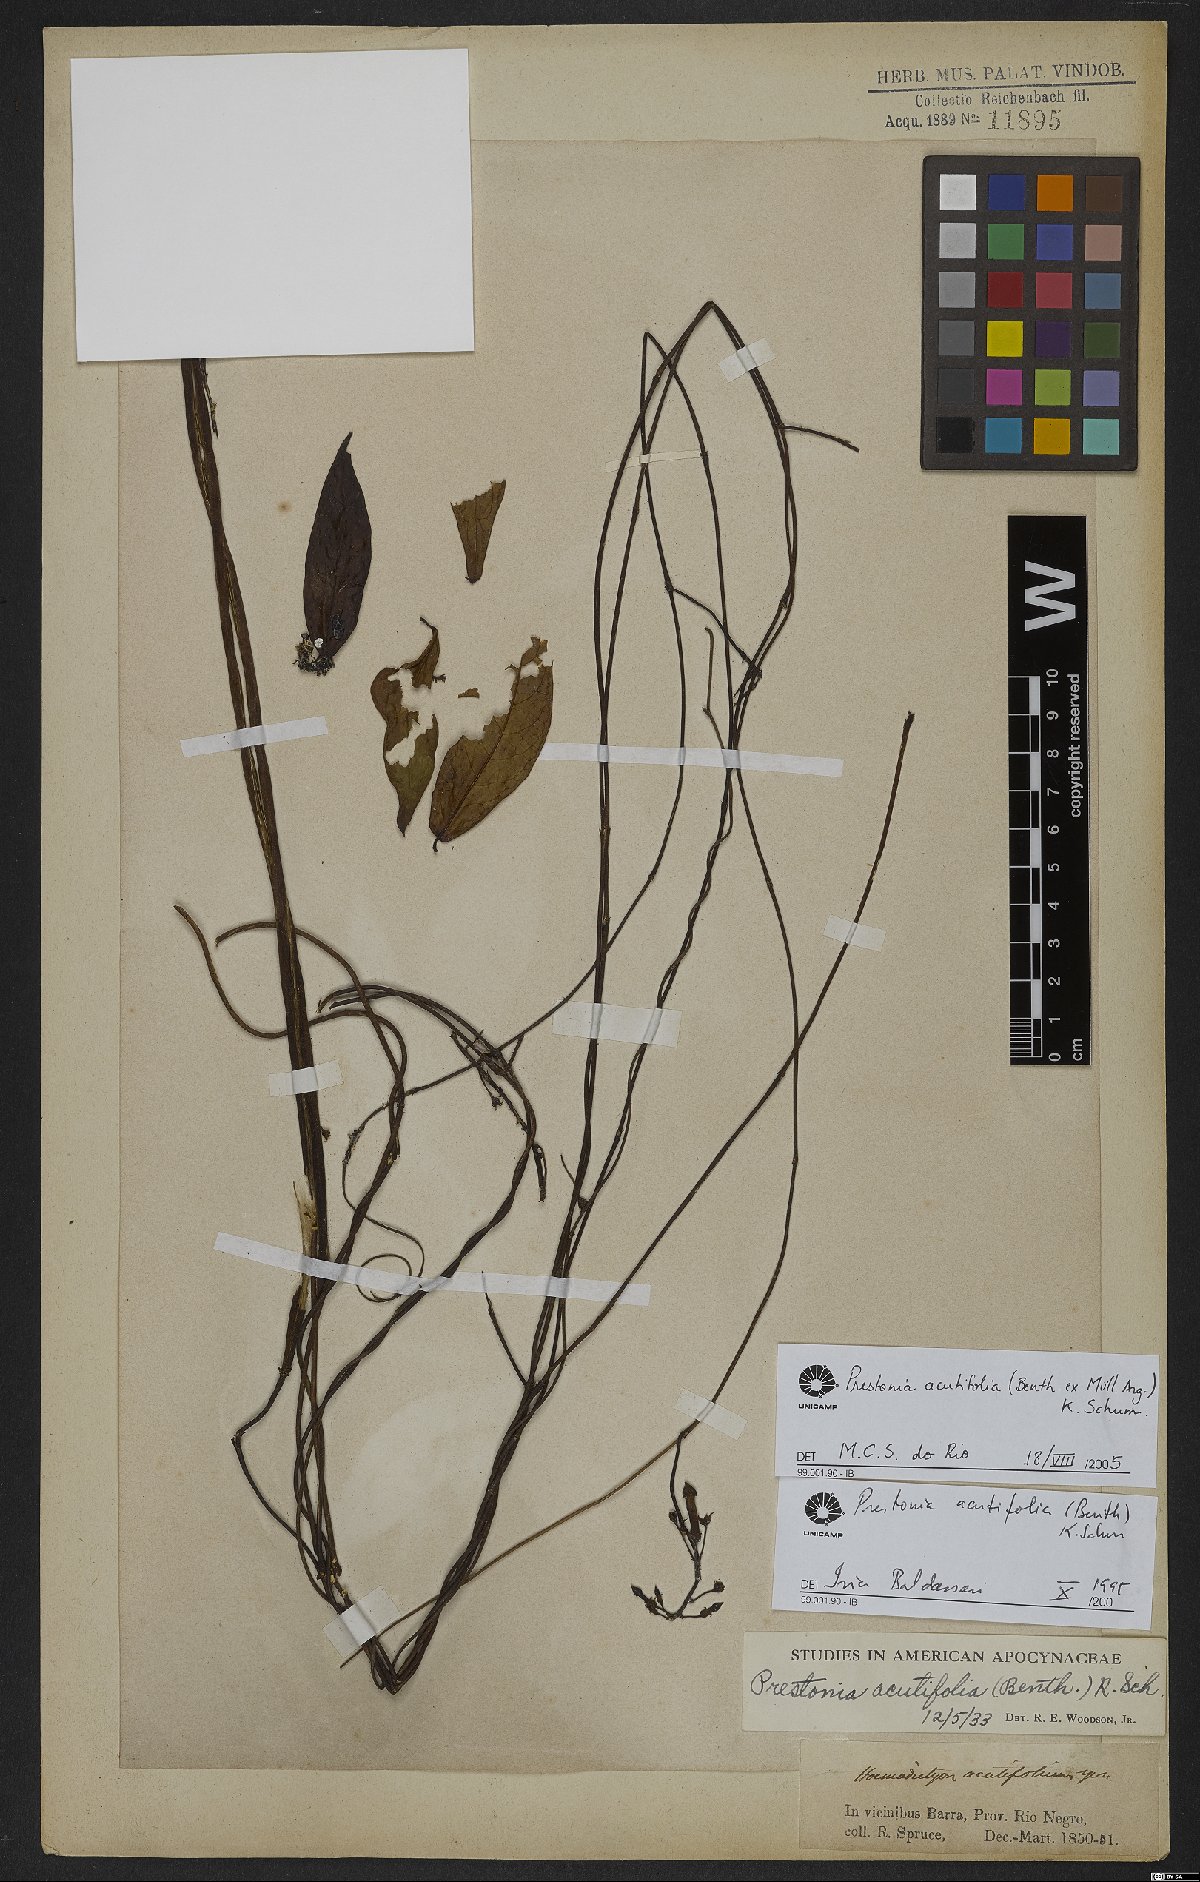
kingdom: Plantae
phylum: Tracheophyta
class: Magnoliopsida
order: Gentianales
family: Apocynaceae
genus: Prestonia
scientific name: Prestonia quinquangularis
